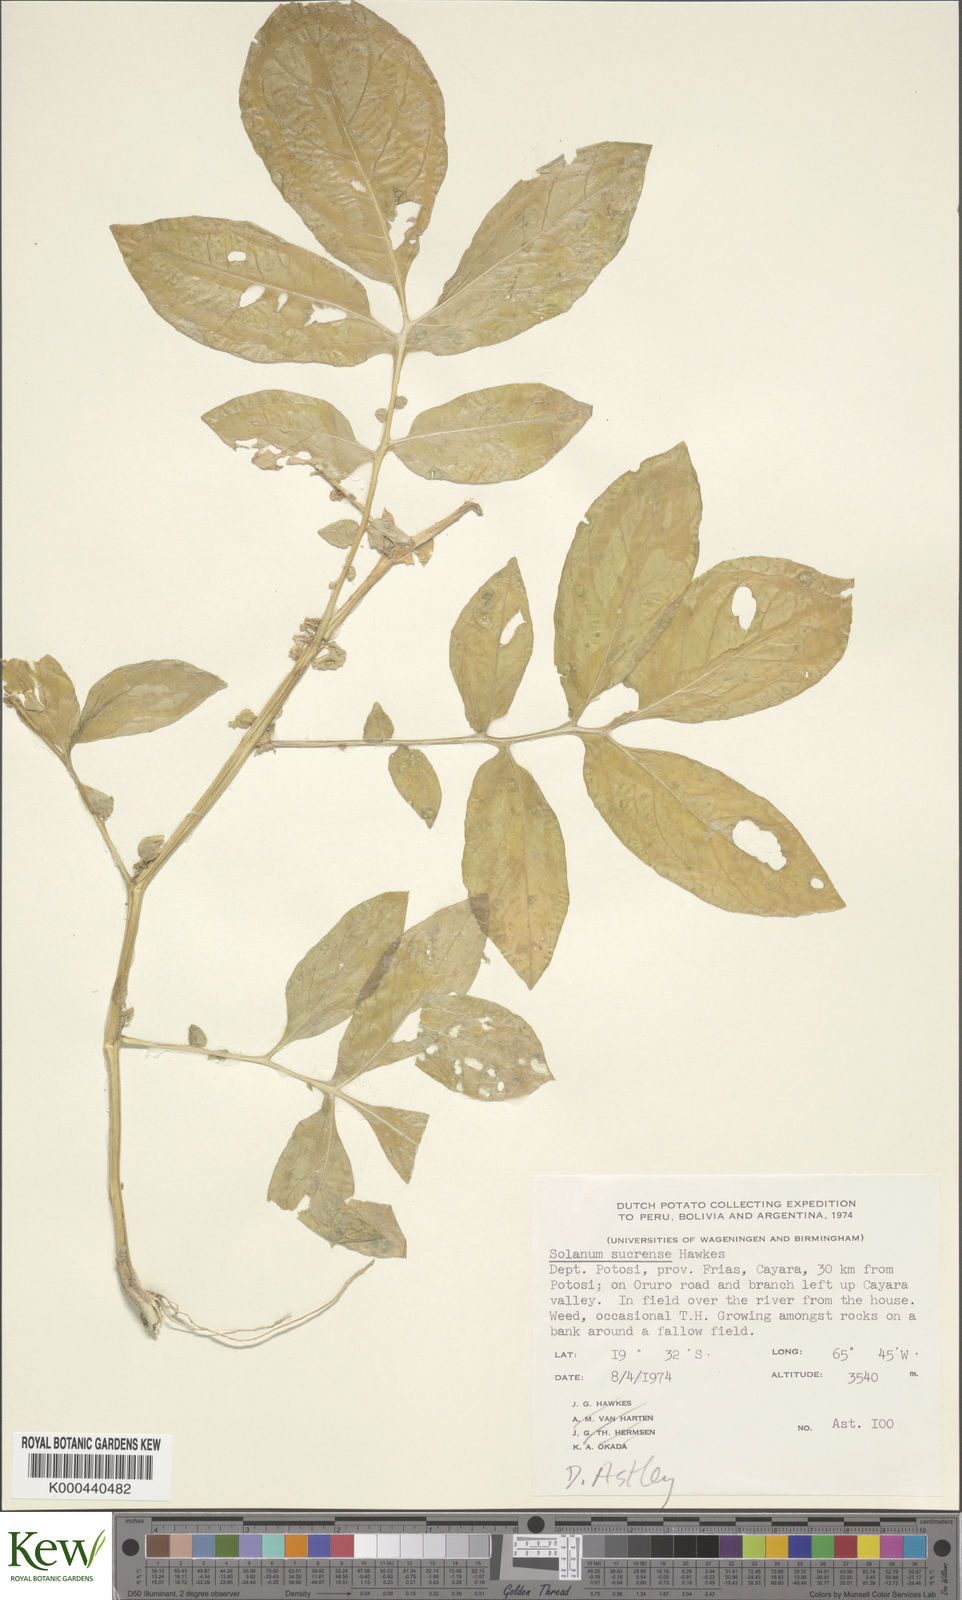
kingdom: Plantae
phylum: Tracheophyta
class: Magnoliopsida
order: Solanales
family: Solanaceae
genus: Solanum
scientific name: Solanum brevicaule
